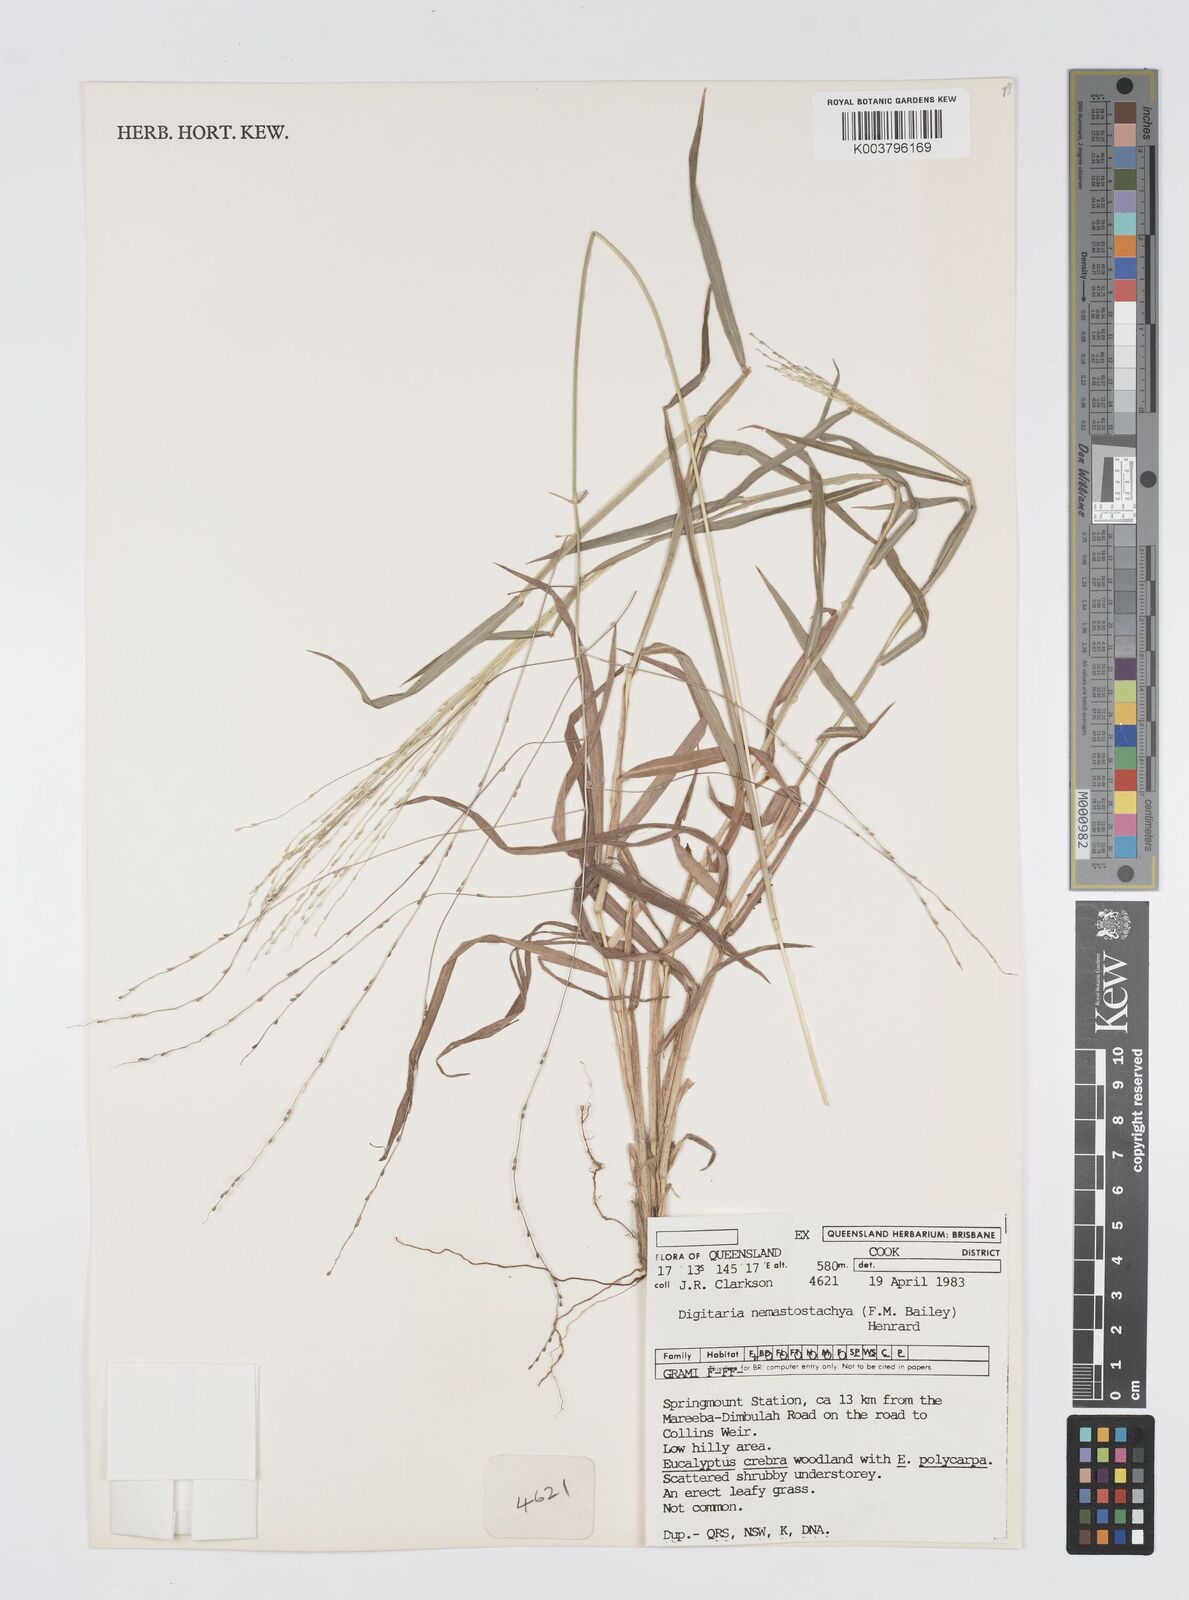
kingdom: Plantae
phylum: Tracheophyta
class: Liliopsida
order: Poales
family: Poaceae
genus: Digitaria
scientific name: Digitaria nematostachya
